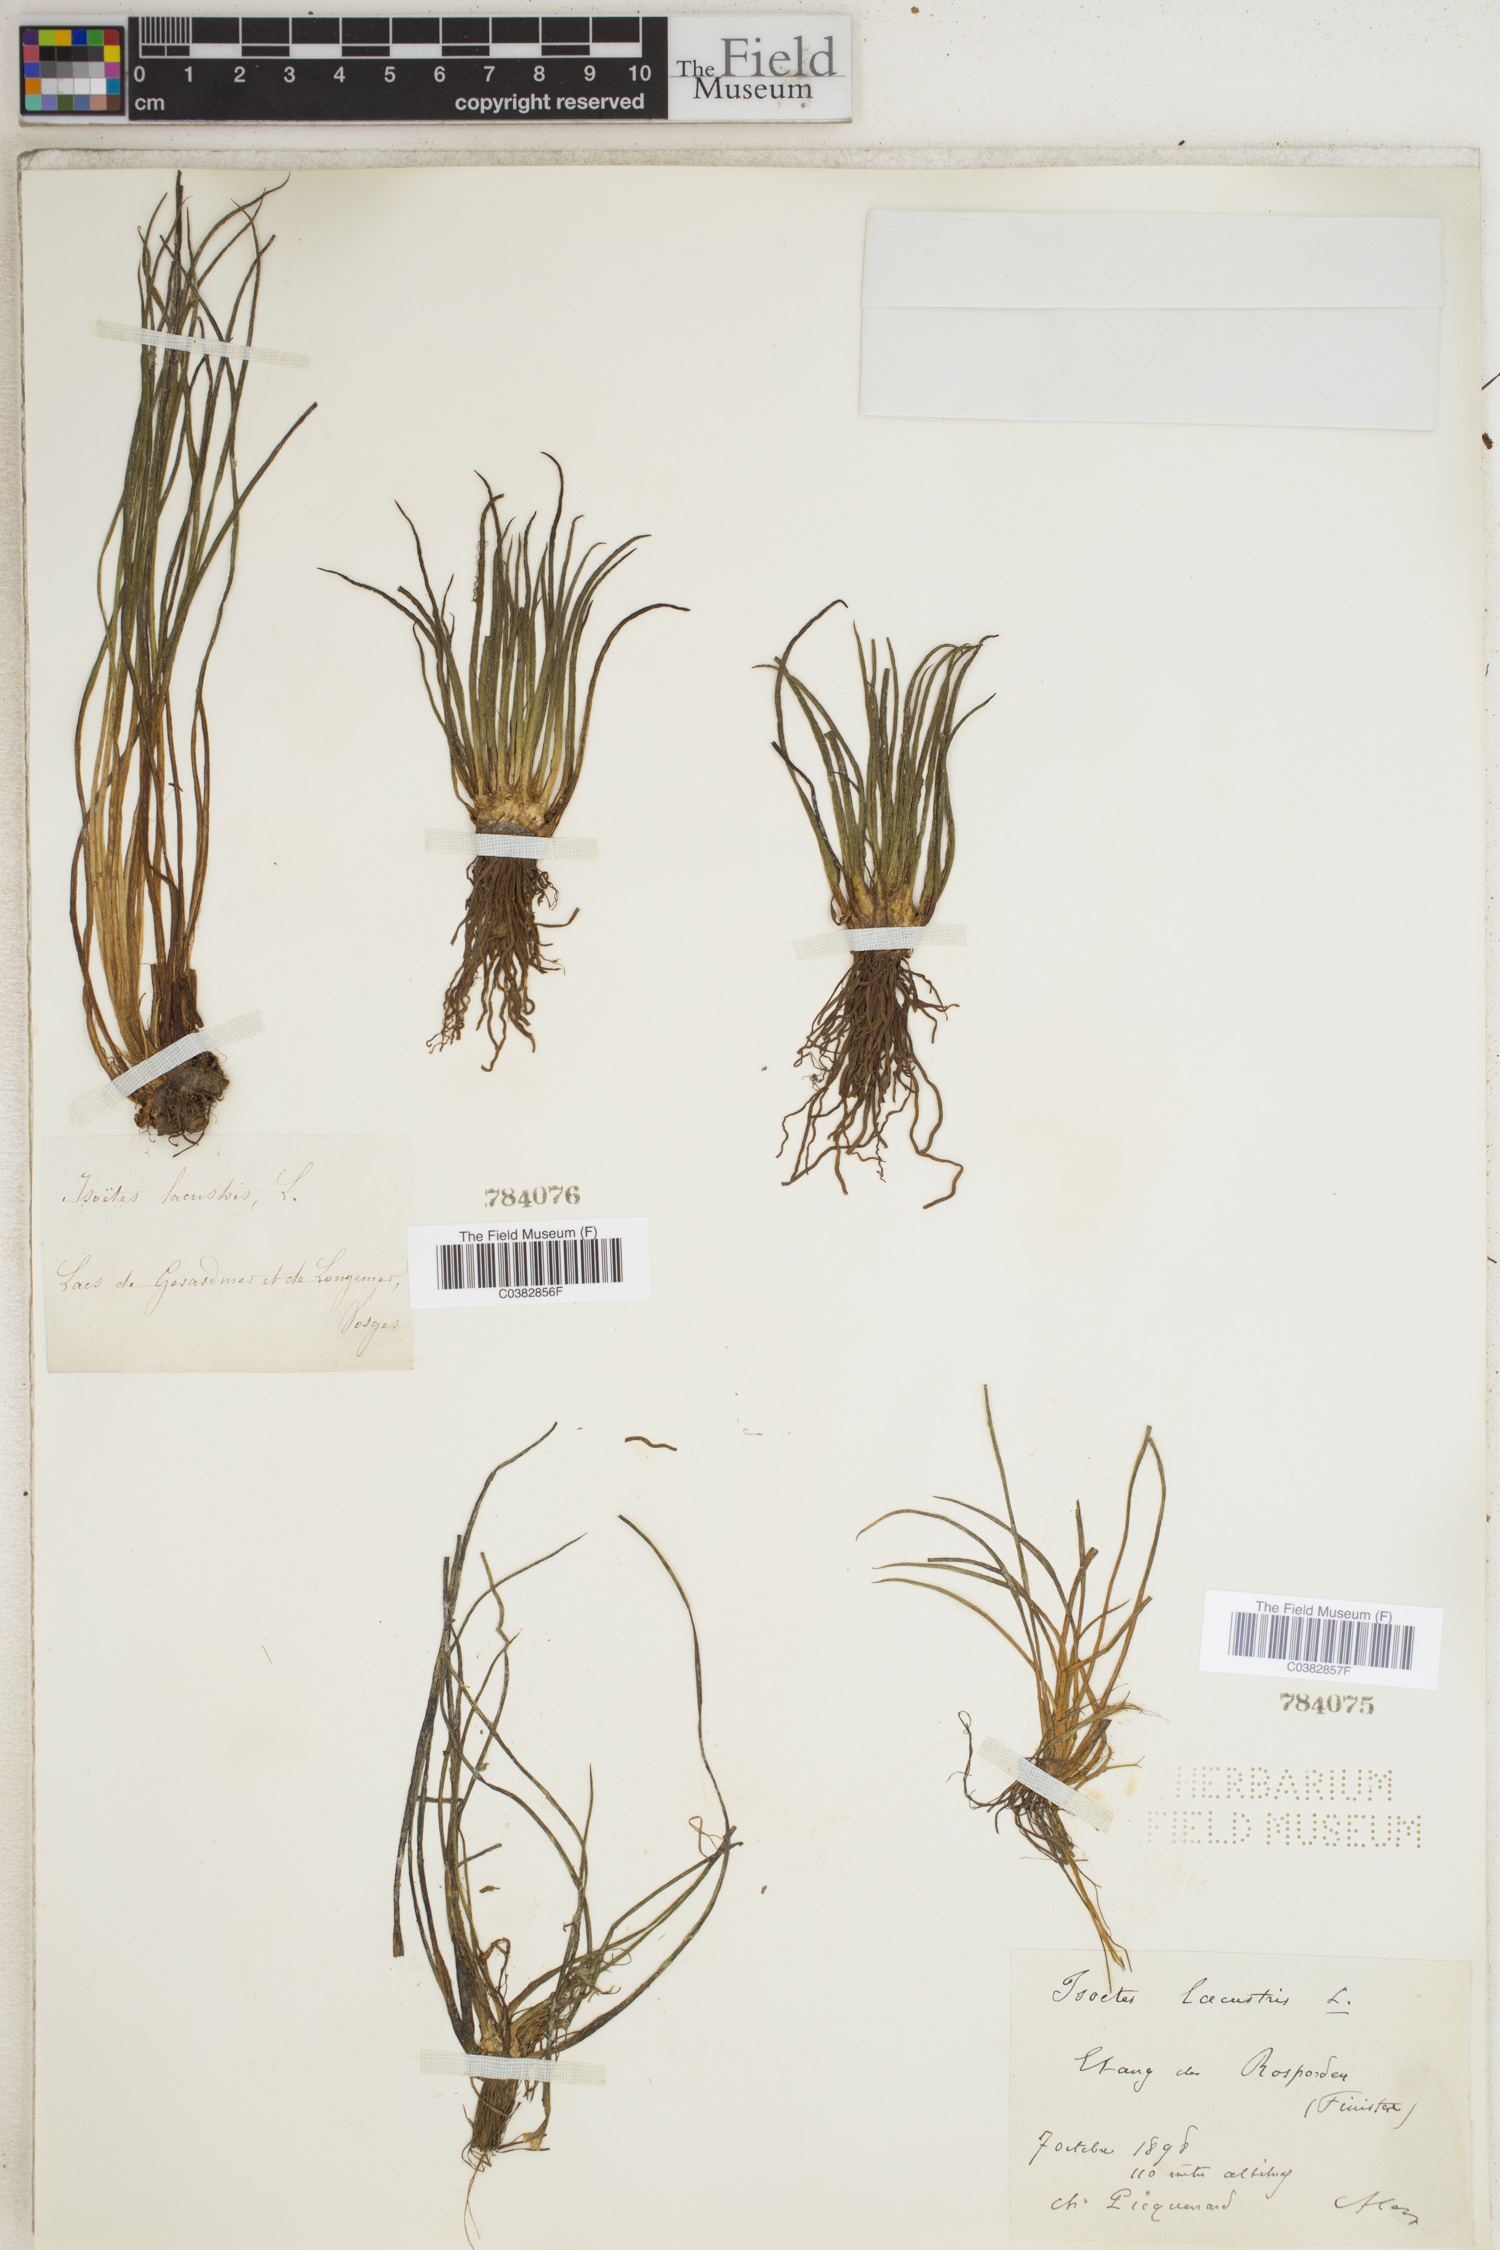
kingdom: Plantae
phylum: Tracheophyta
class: Lycopodiopsida
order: Isoetales
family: Isoetaceae
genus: Isoetes
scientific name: Isoetes lacustris
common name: Common quillwort
